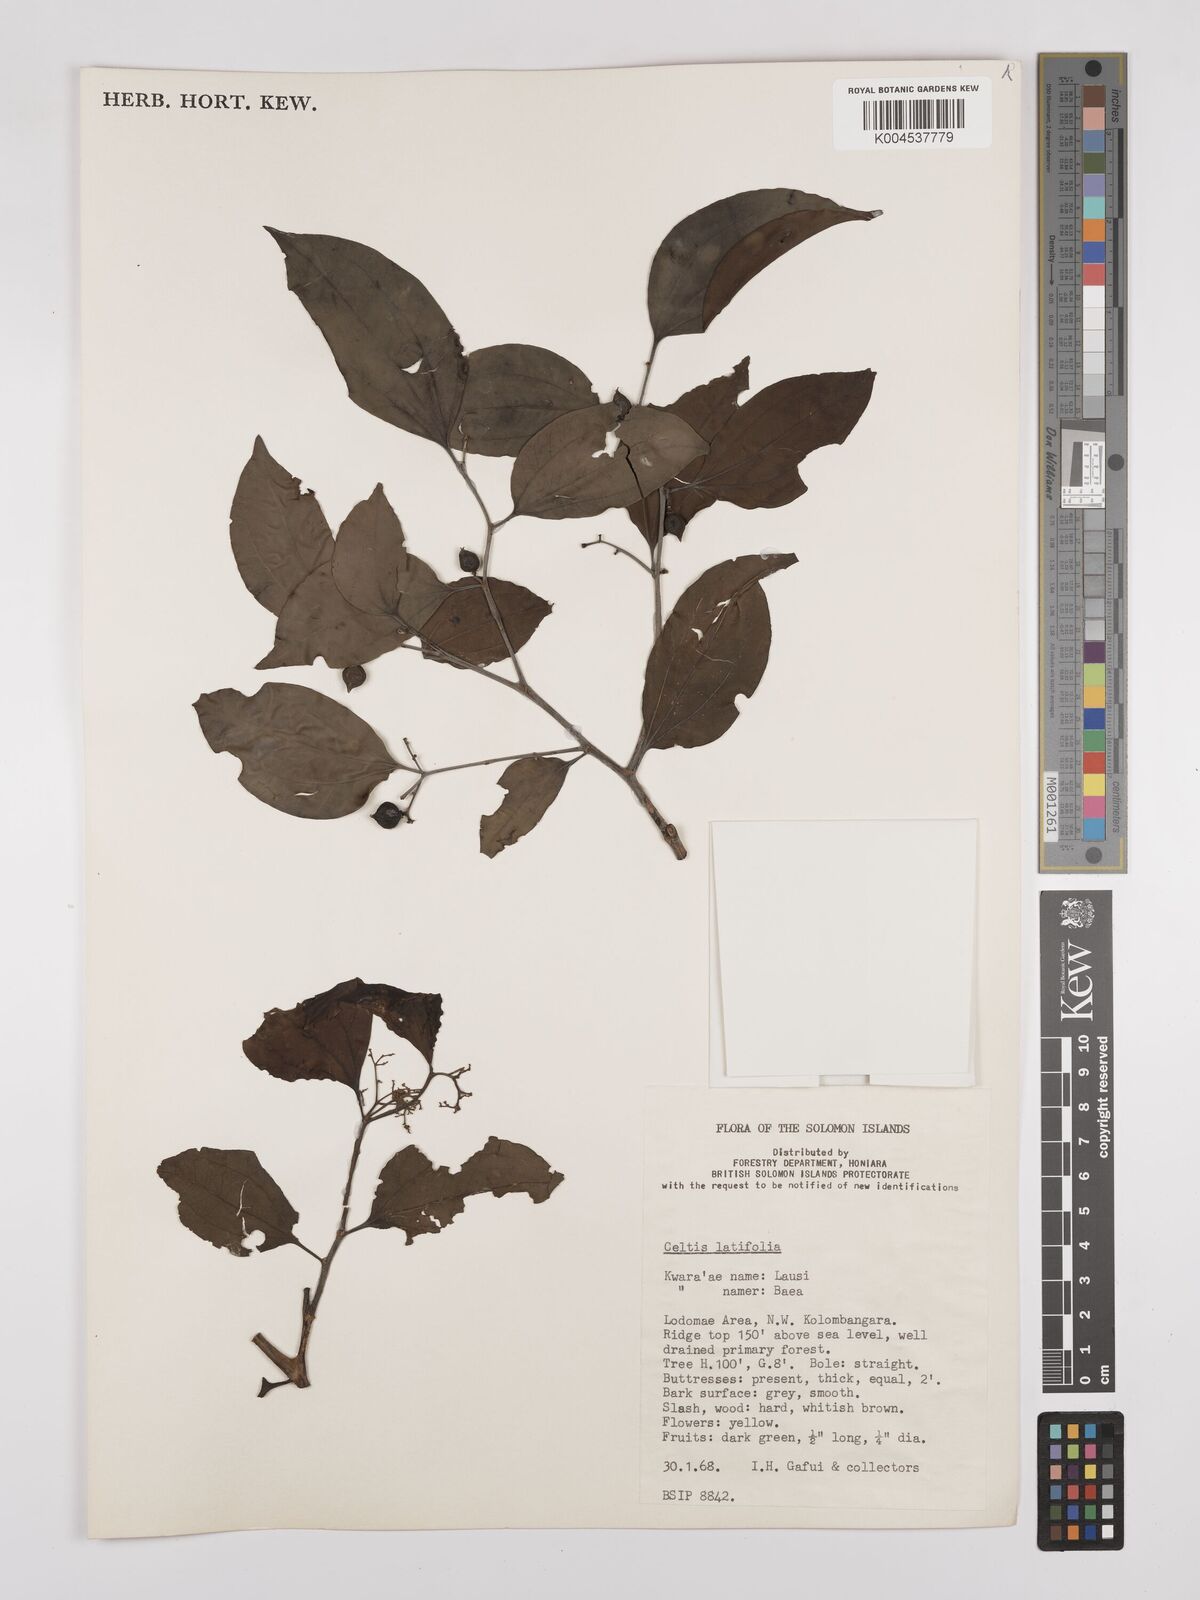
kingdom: Plantae
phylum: Tracheophyta
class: Magnoliopsida
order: Rosales
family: Cannabaceae
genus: Celtis
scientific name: Celtis latifolia
